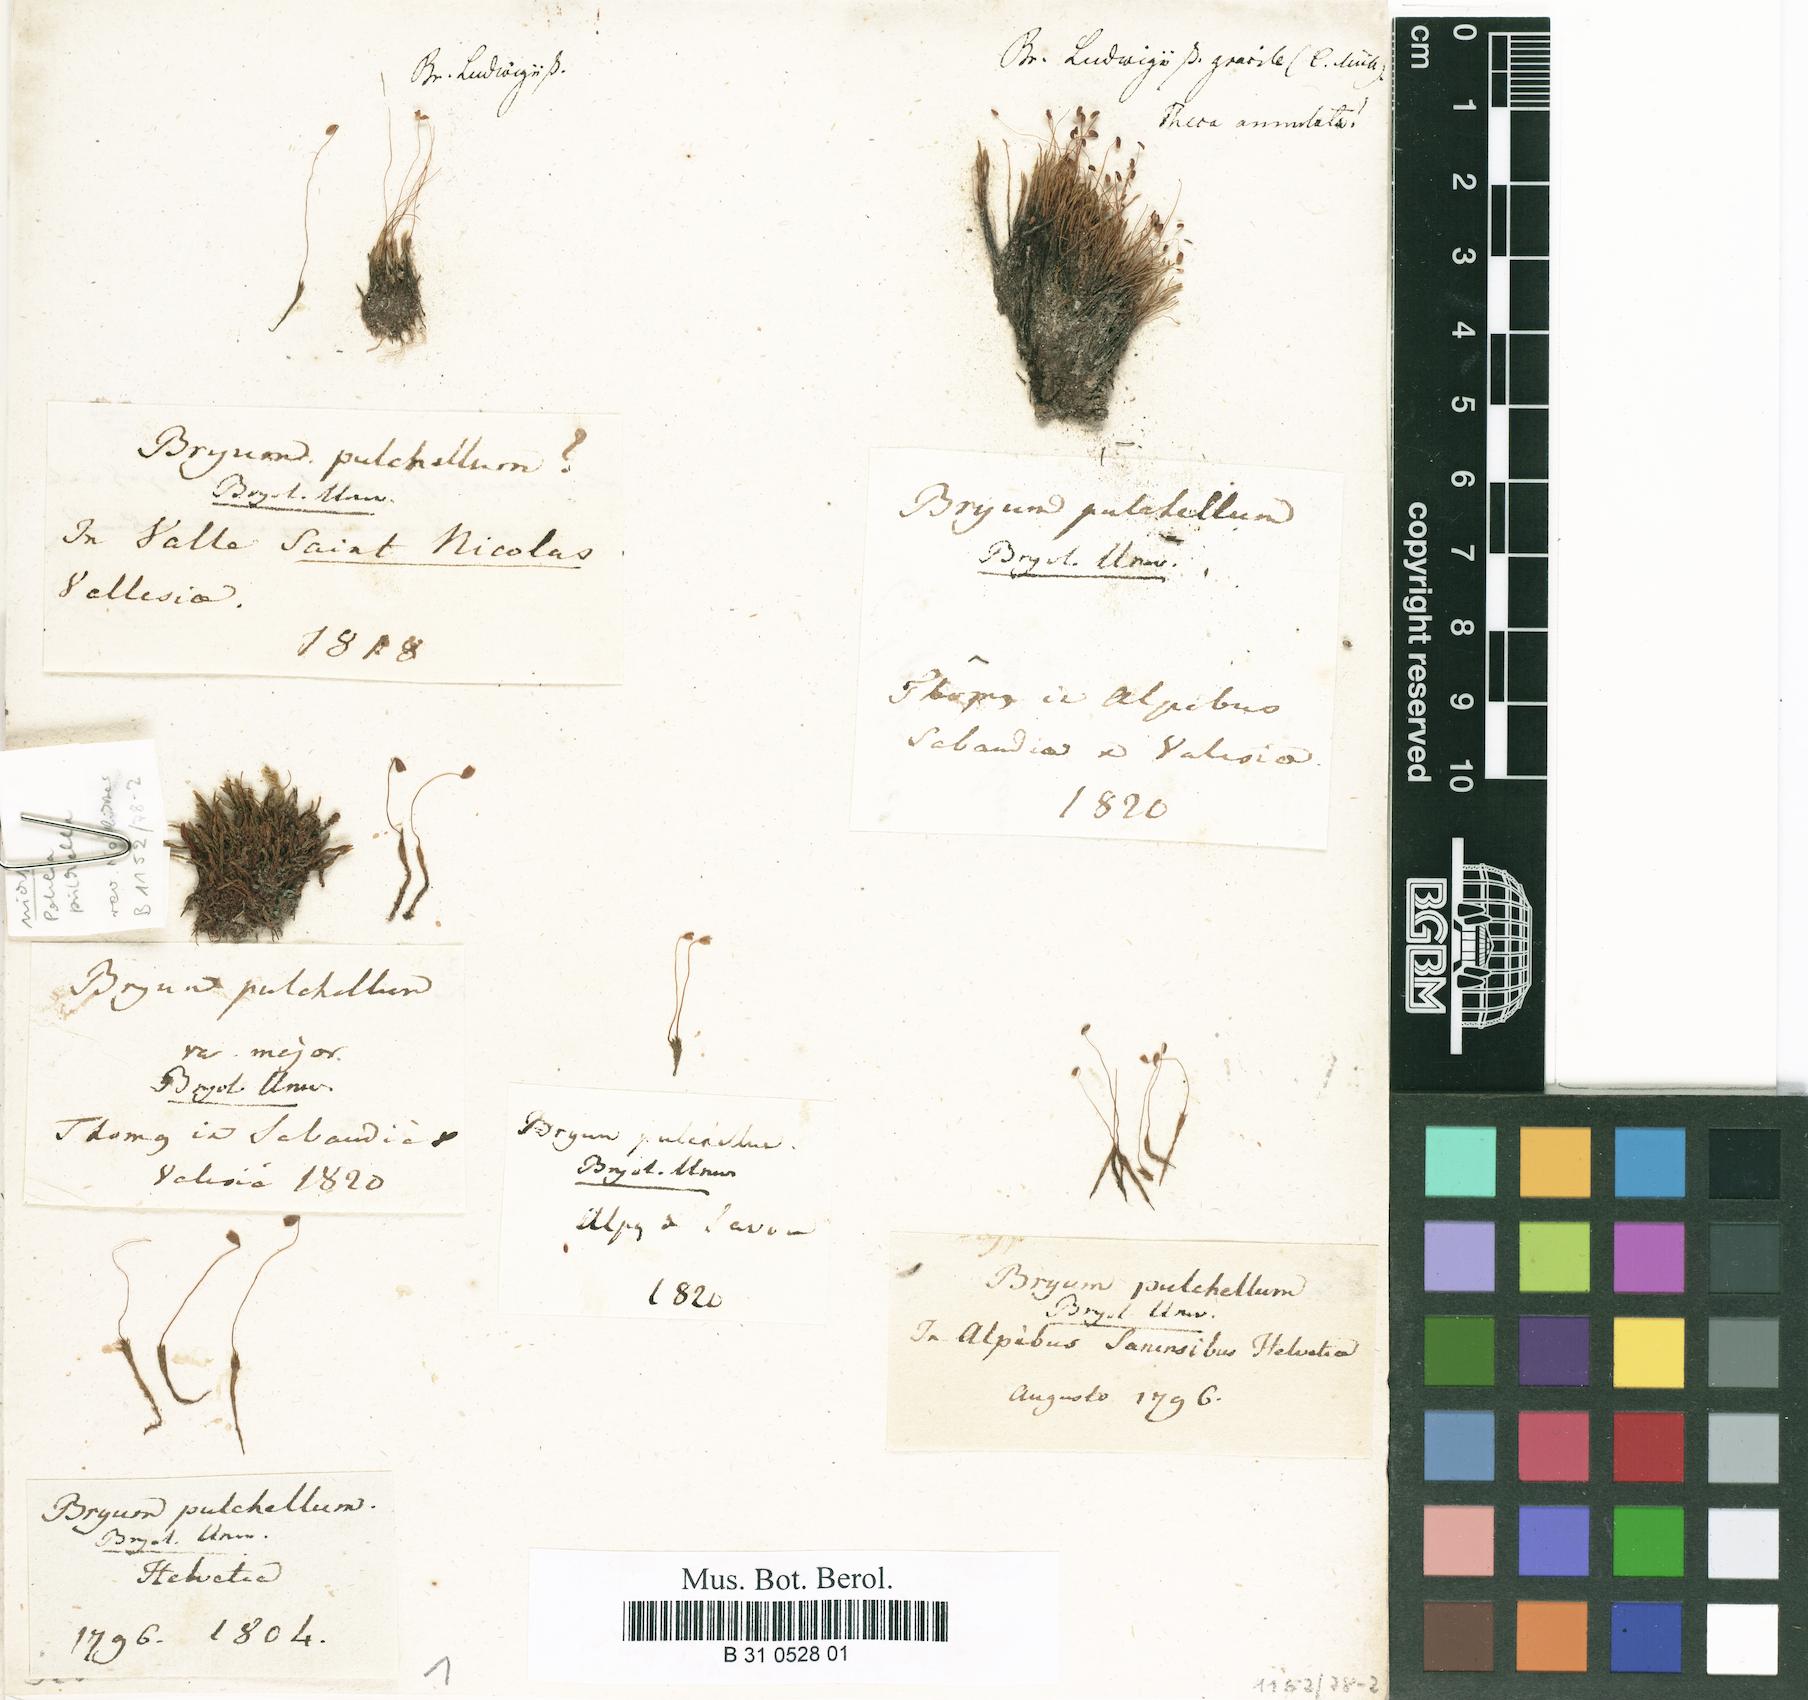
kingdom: Plantae
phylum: Bryophyta
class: Bryopsida
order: Bryales
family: Mniaceae
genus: Pohlia
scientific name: Pohlia lescuriana
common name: Pear-shaped nodding moss
